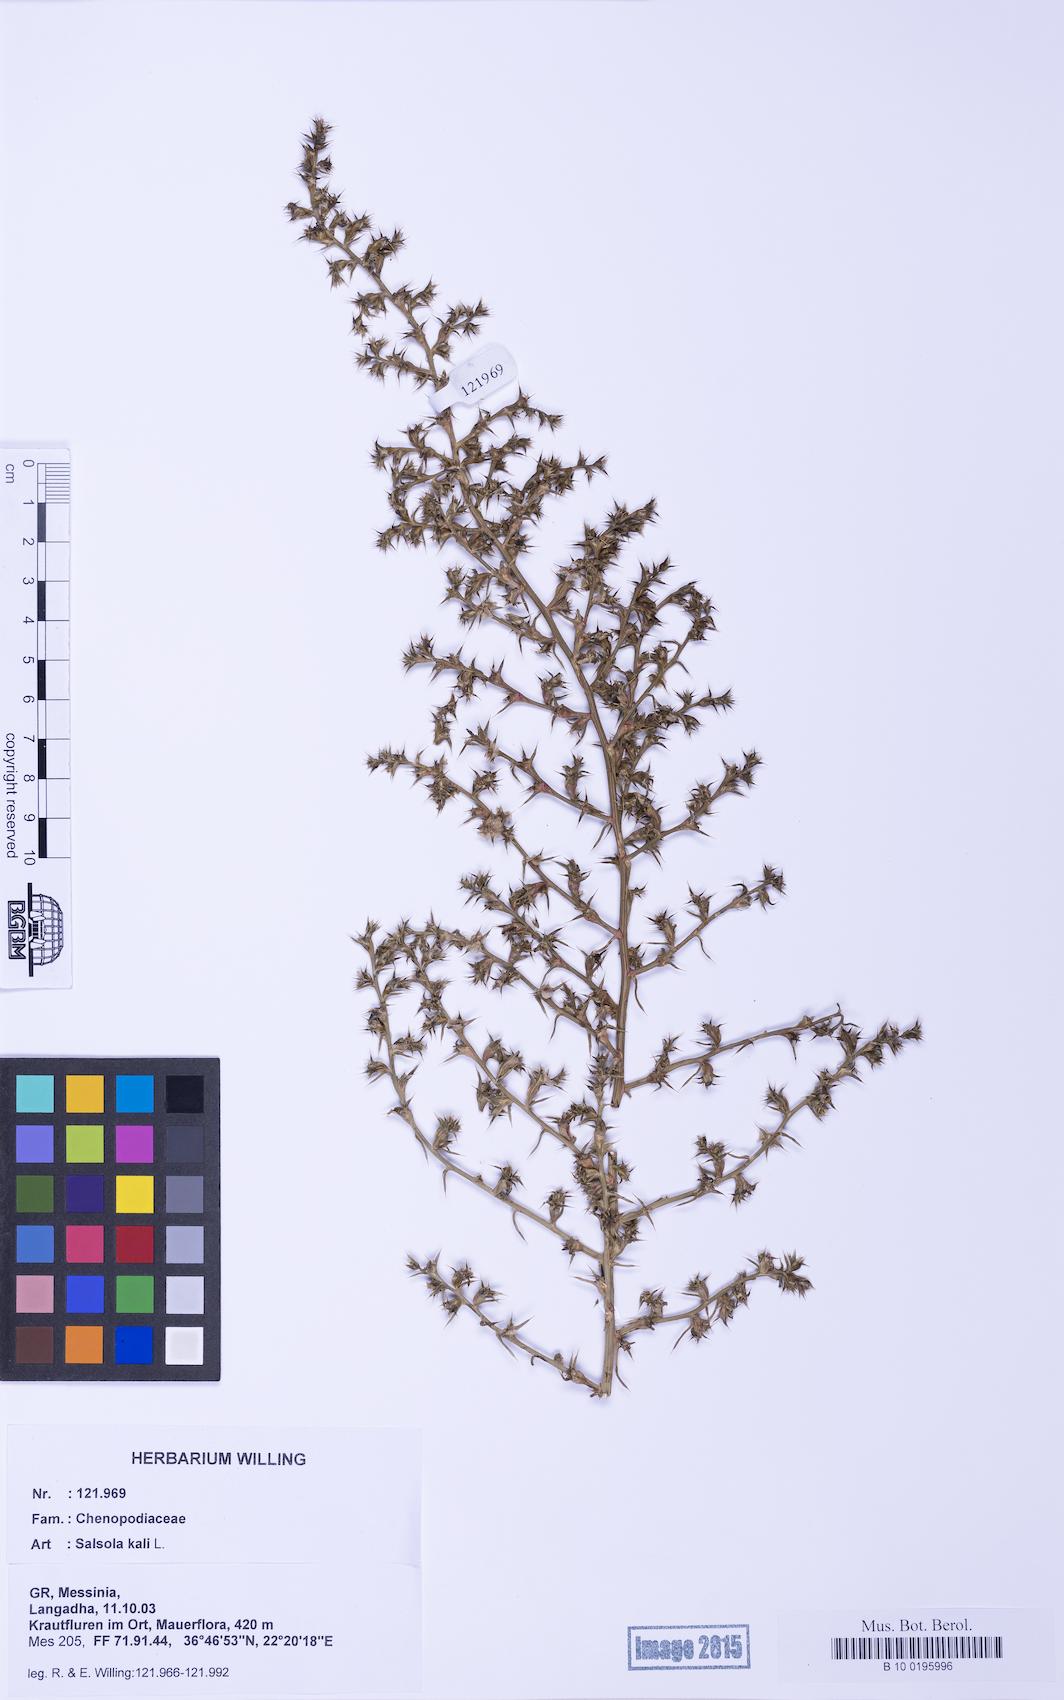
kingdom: Plantae
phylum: Tracheophyta
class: Magnoliopsida
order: Caryophyllales
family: Amaranthaceae
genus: Salsola
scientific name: Salsola tragus
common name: Prickly russian thistle
